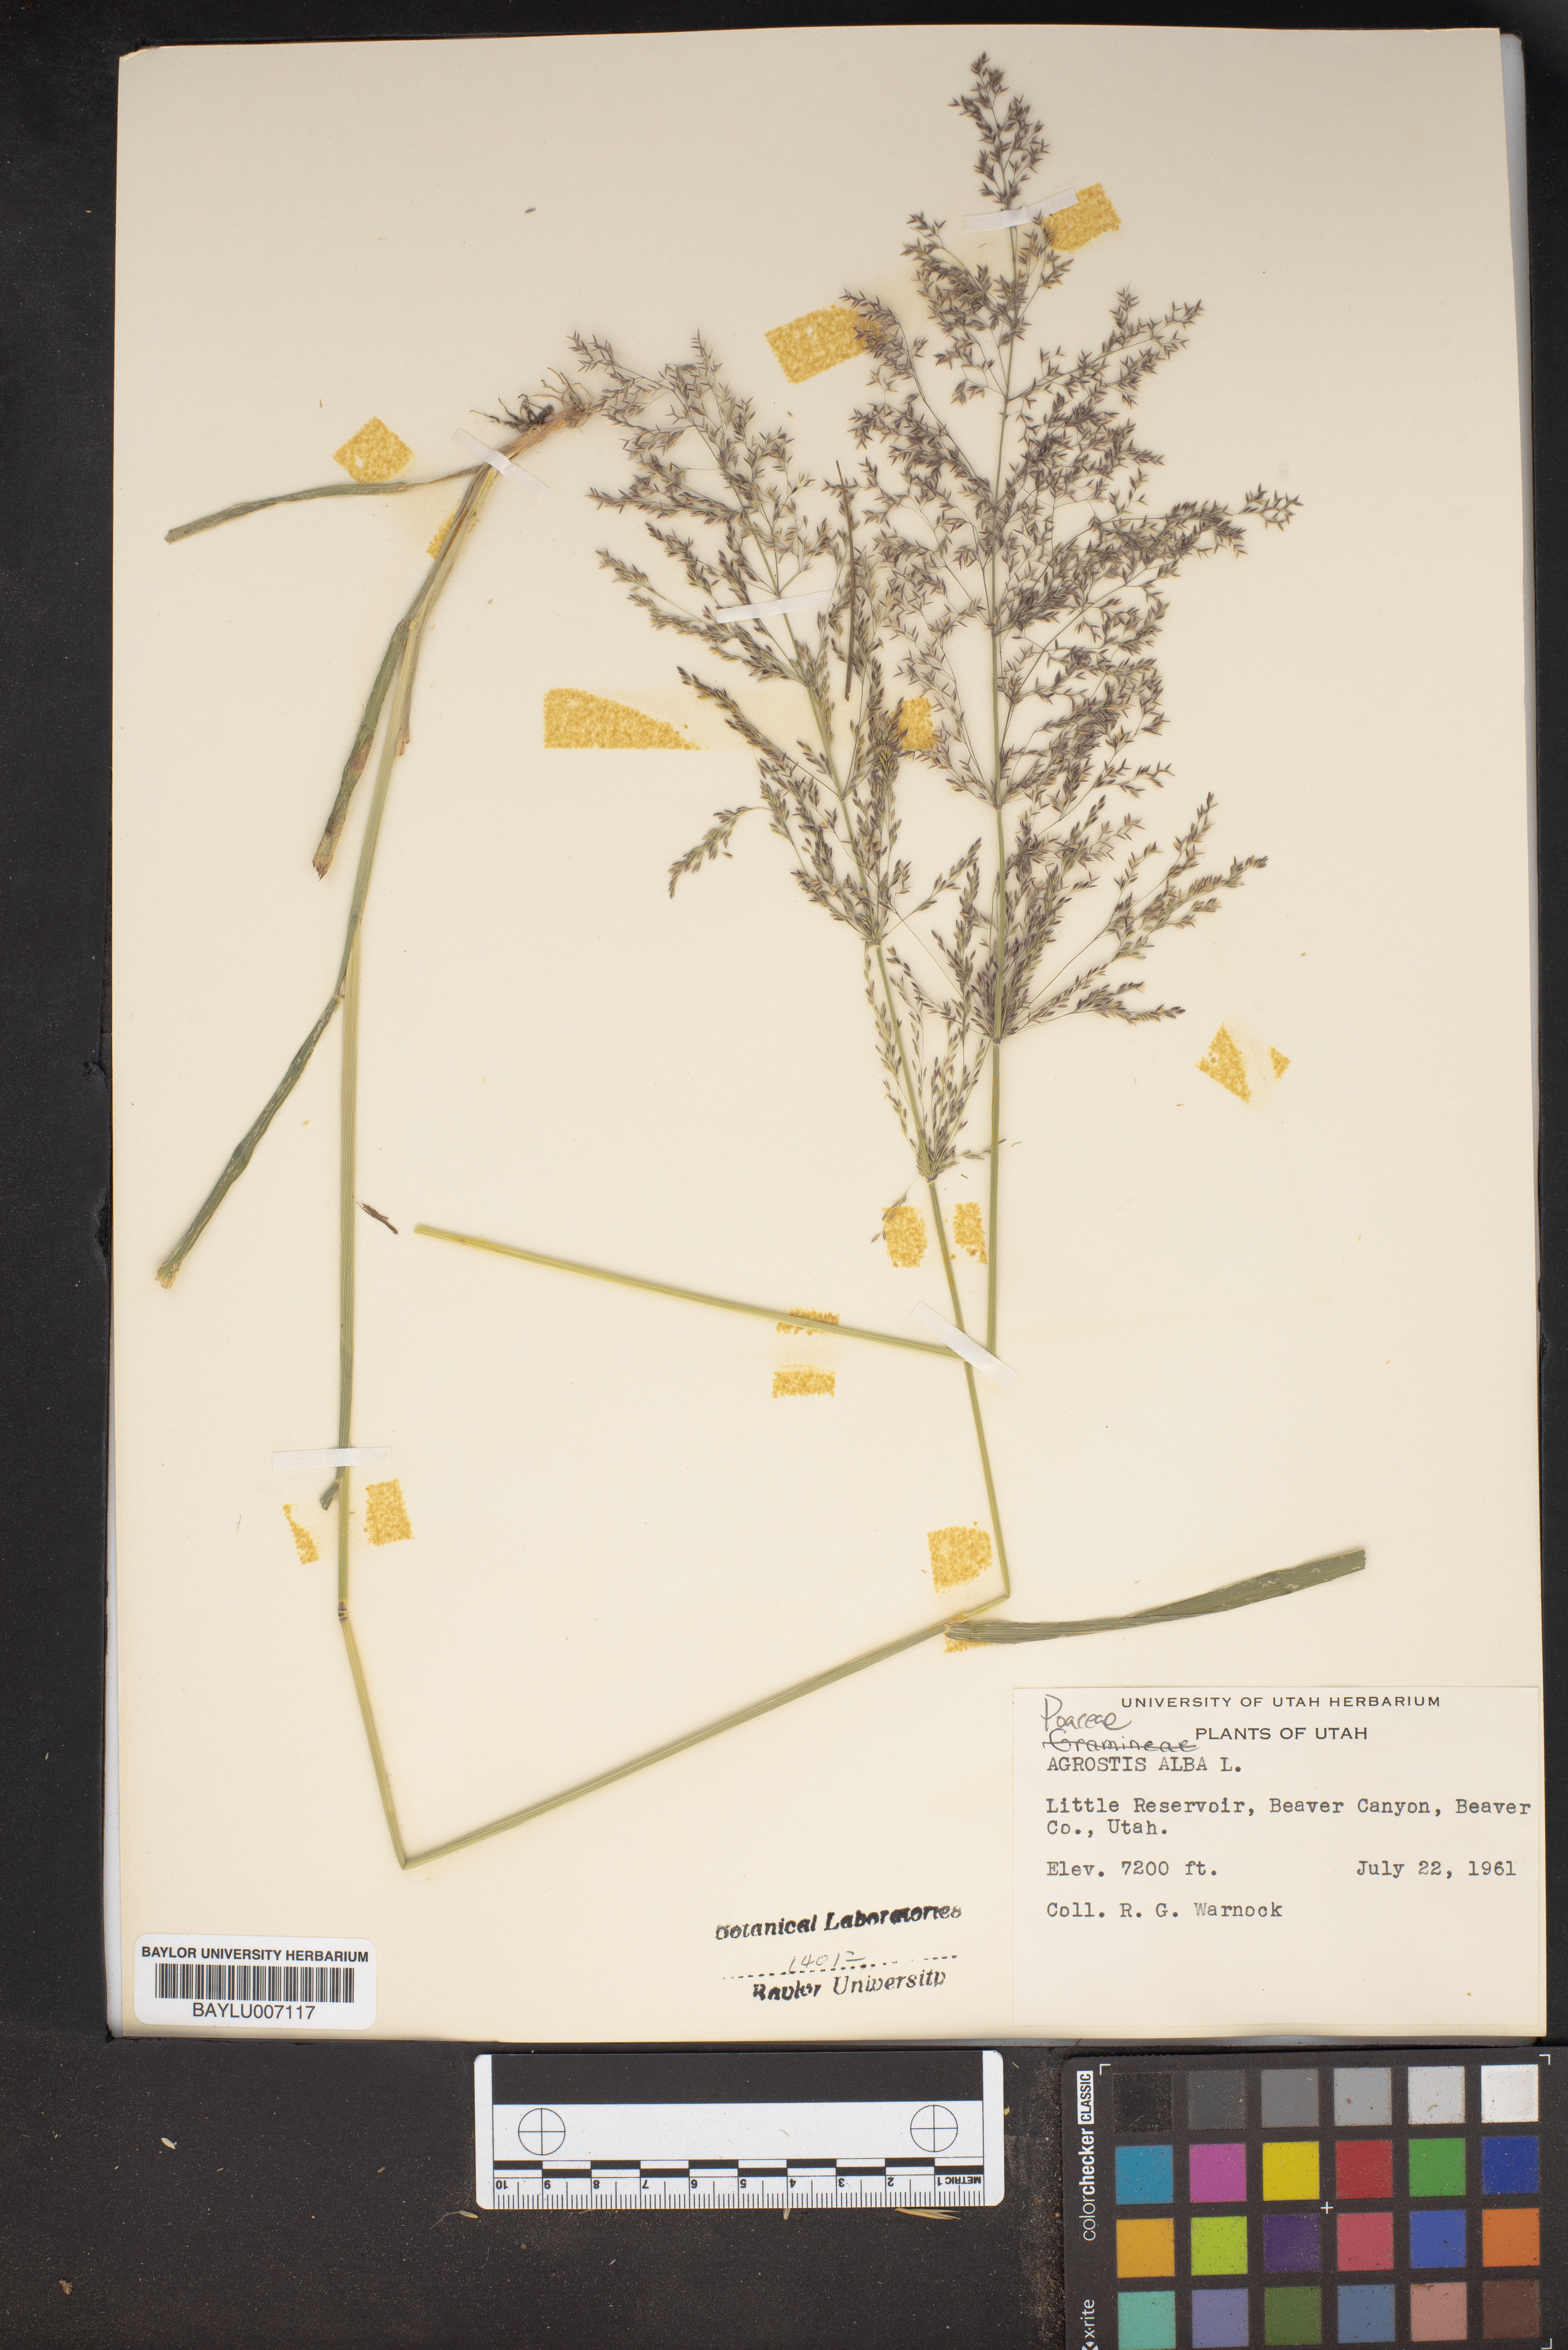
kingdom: Plantae
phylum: Tracheophyta
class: Liliopsida
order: Poales
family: Poaceae
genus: Agrostis
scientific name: Agrostis alba
